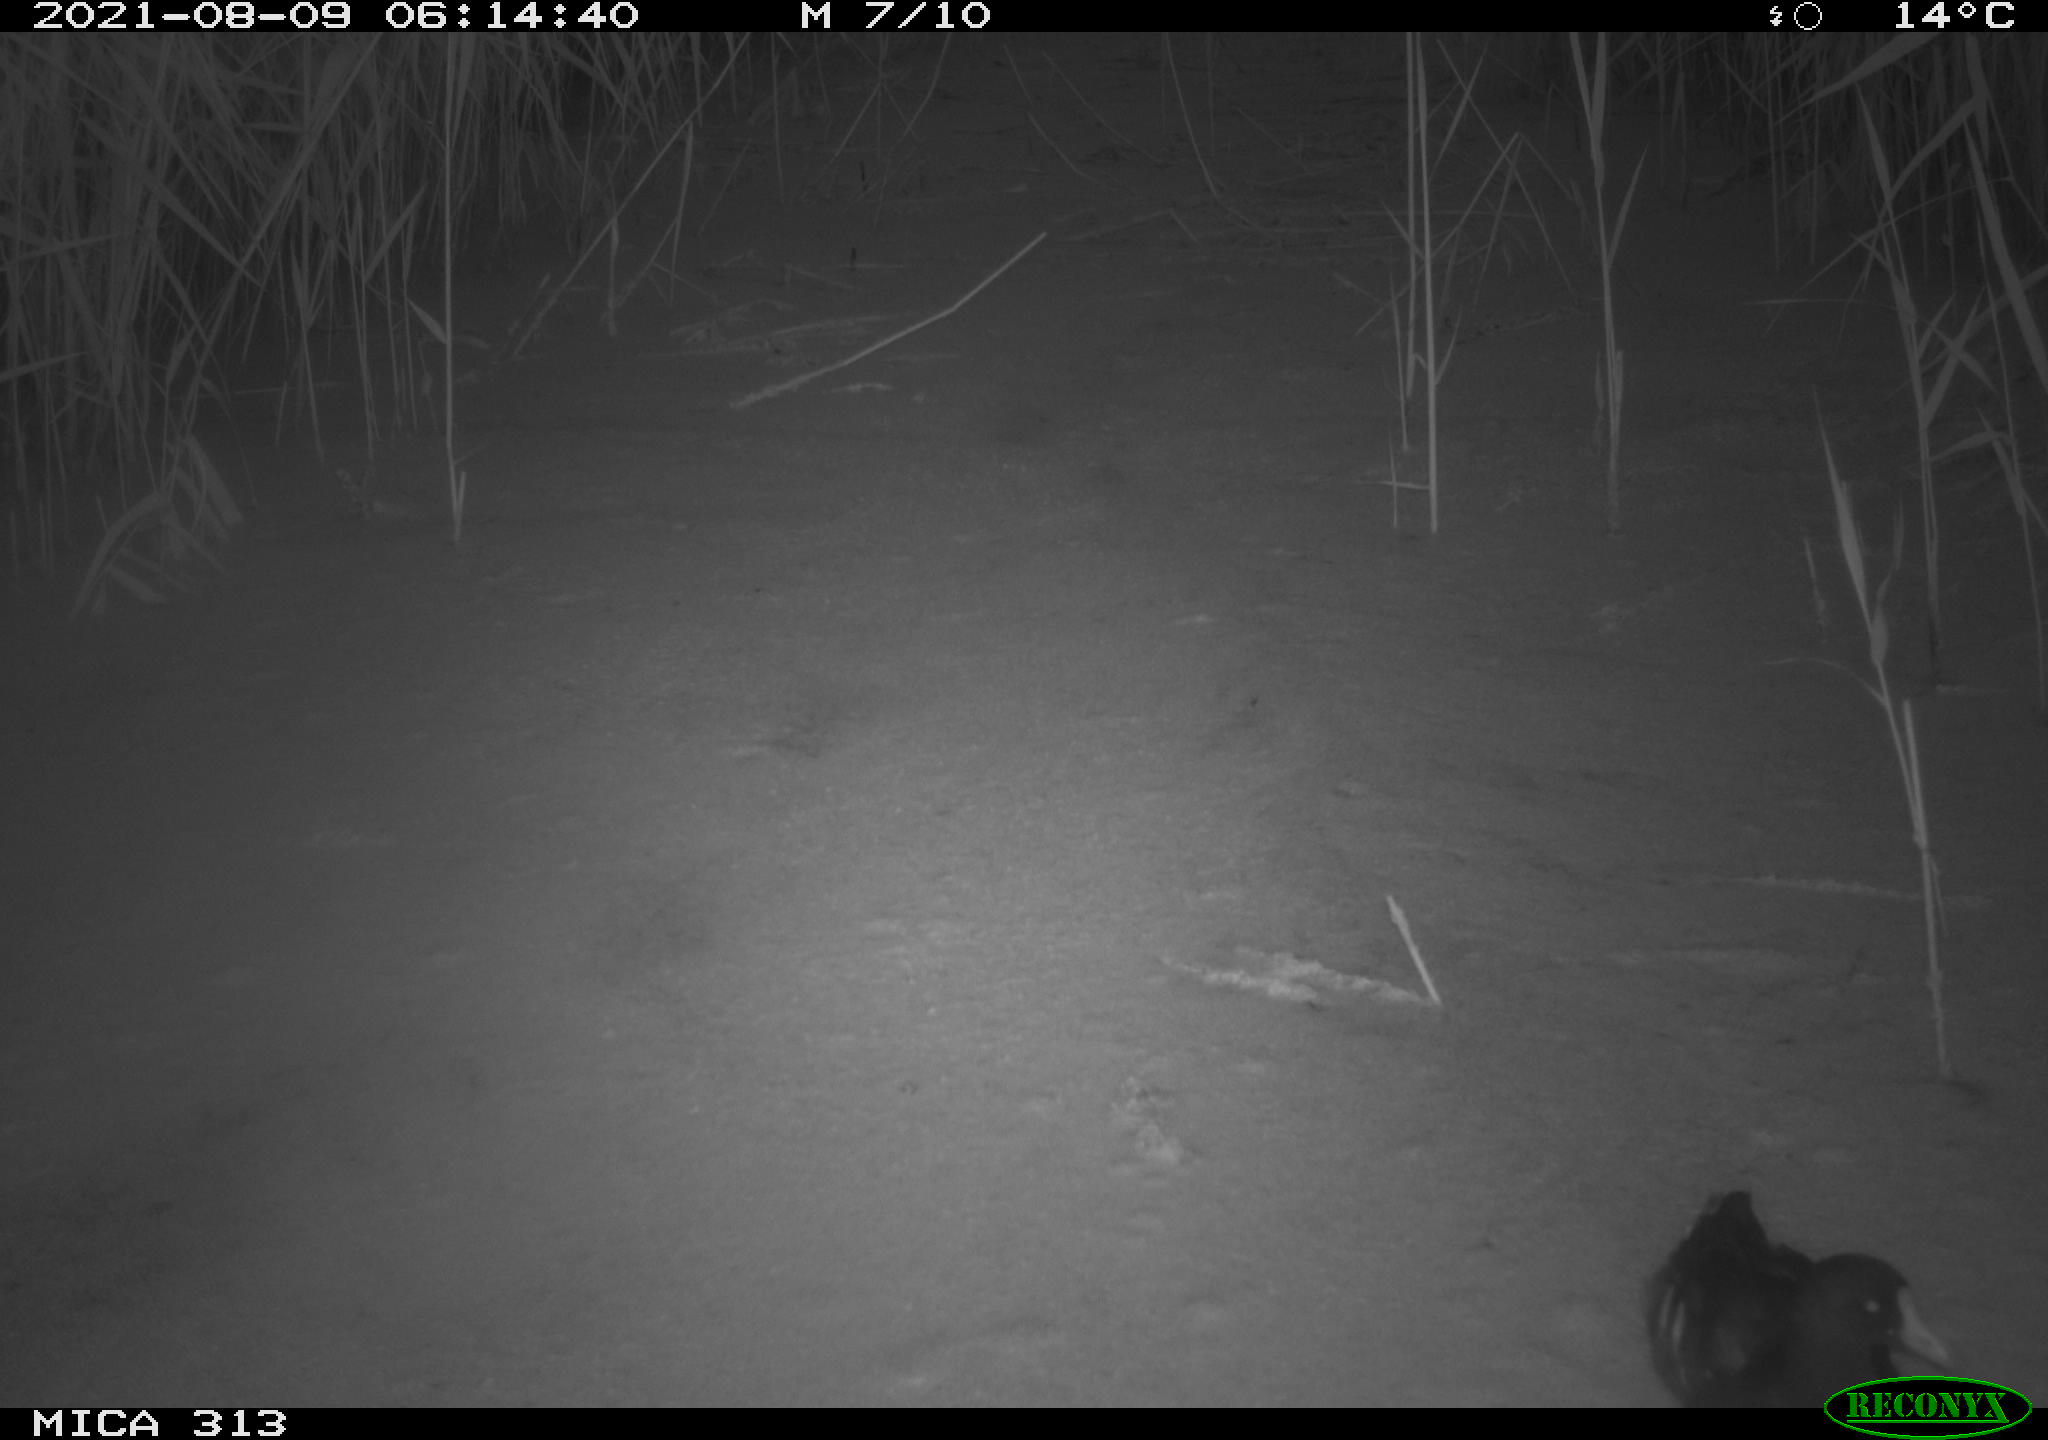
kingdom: Animalia
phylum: Chordata
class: Aves
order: Gruiformes
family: Rallidae
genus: Gallinula
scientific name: Gallinula chloropus
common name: Common moorhen
